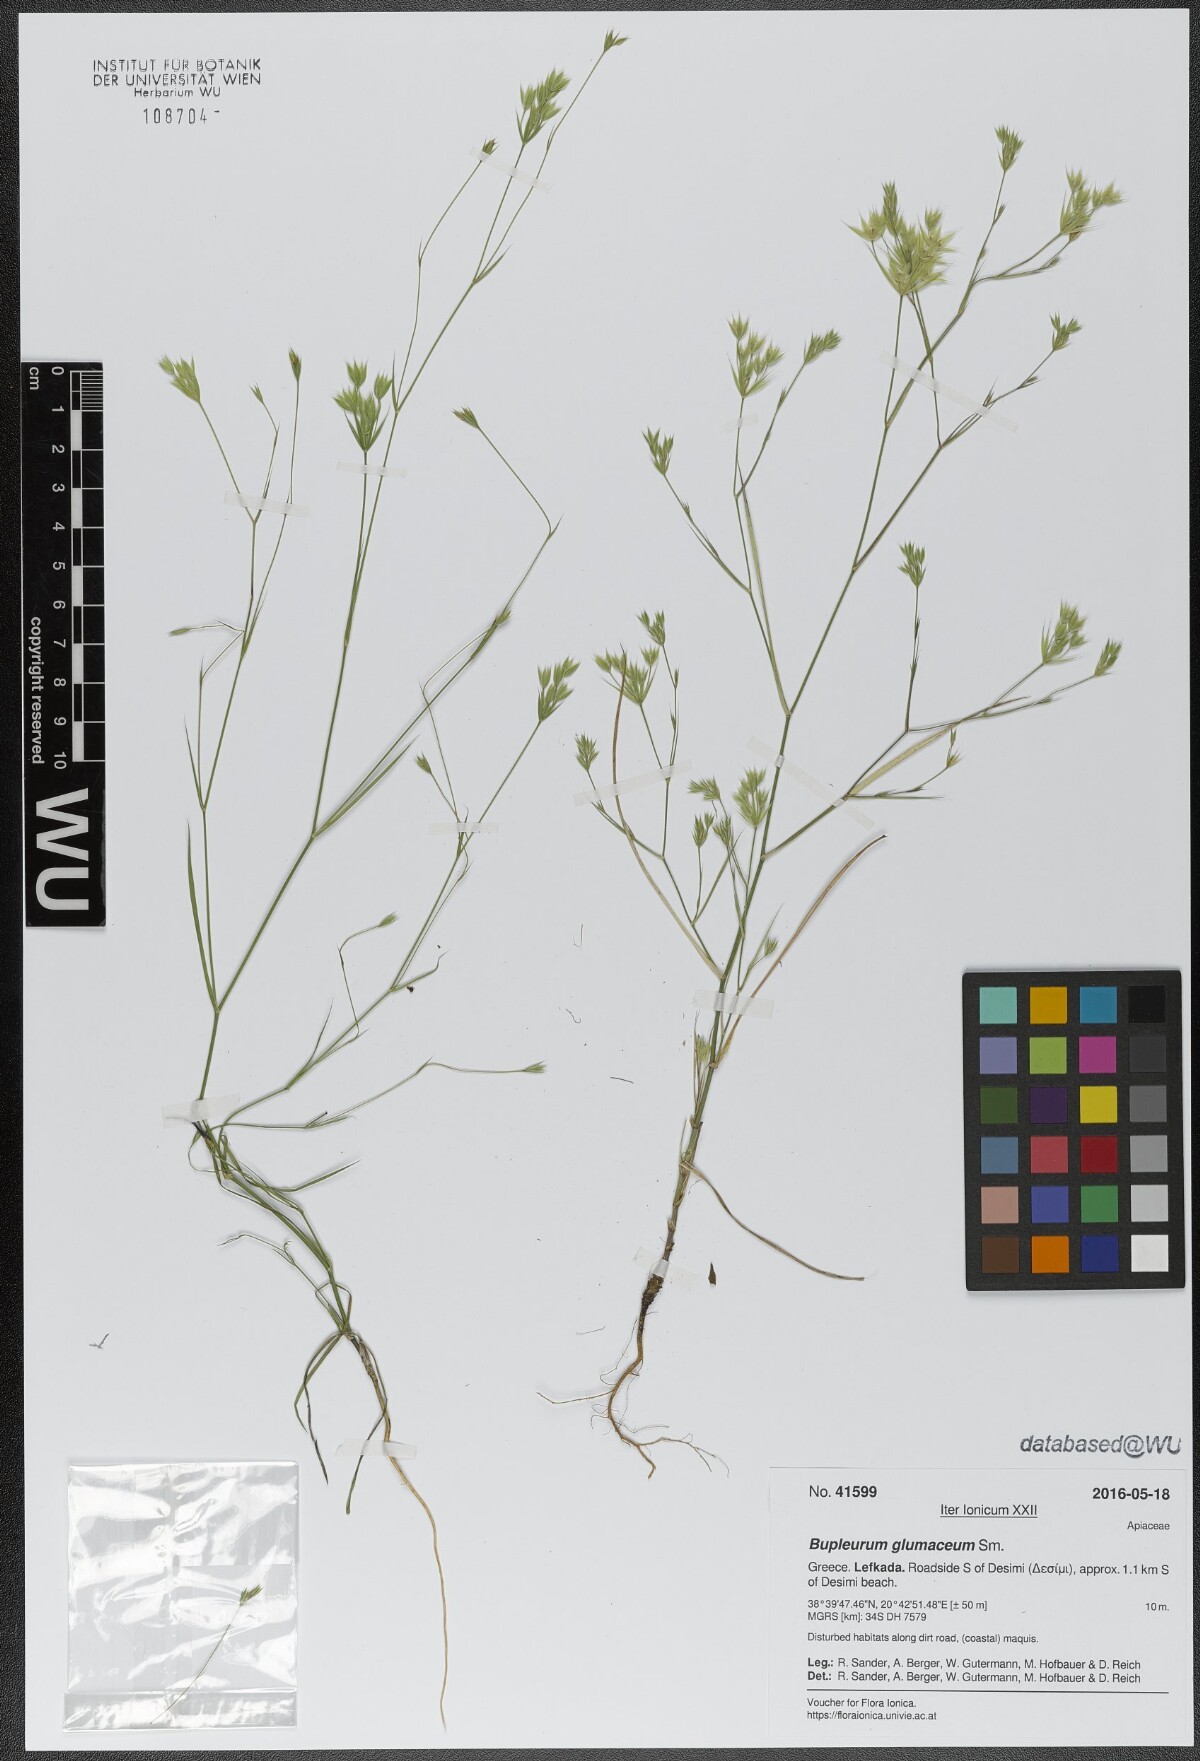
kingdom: Plantae
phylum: Tracheophyta
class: Magnoliopsida
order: Apiales
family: Apiaceae
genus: Bupleurum
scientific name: Bupleurum glumaceum
